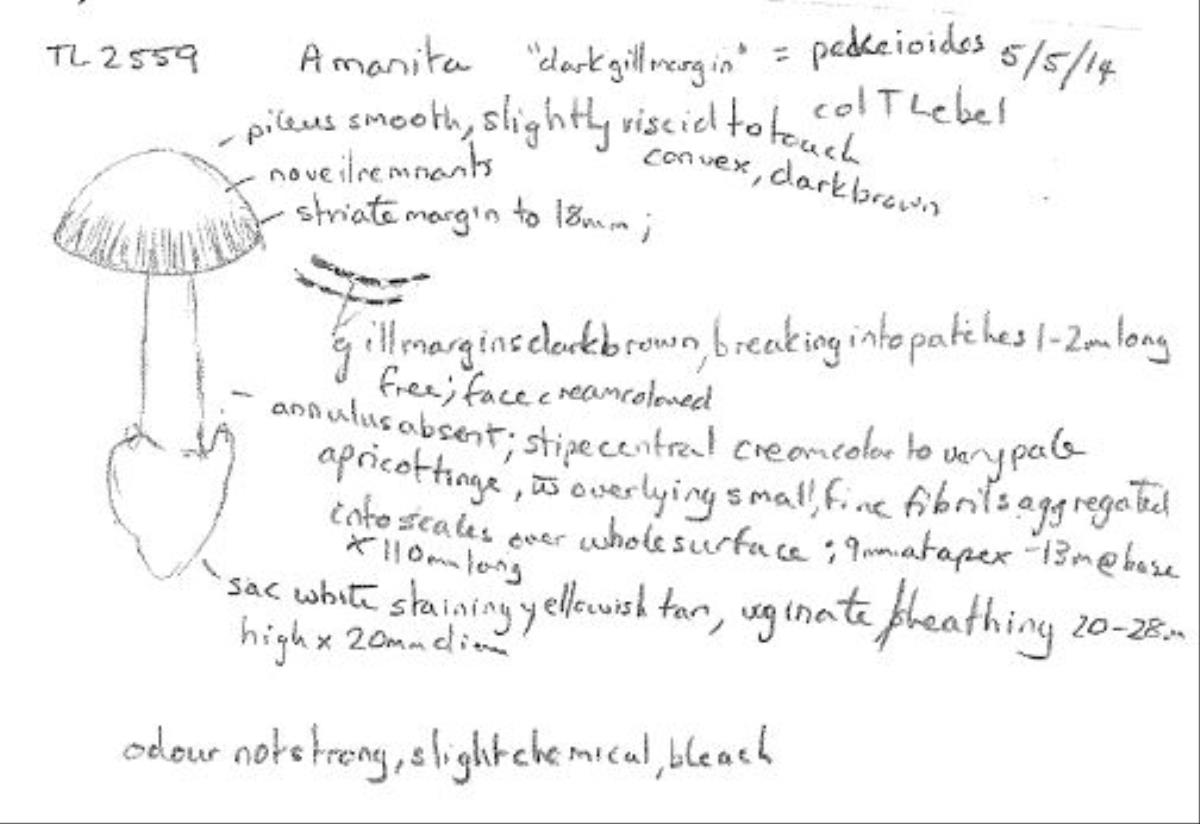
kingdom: Fungi
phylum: Basidiomycota
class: Agaricomycetes
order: Agaricales
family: Amanitaceae
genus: Amanita
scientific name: Amanita drummondii
